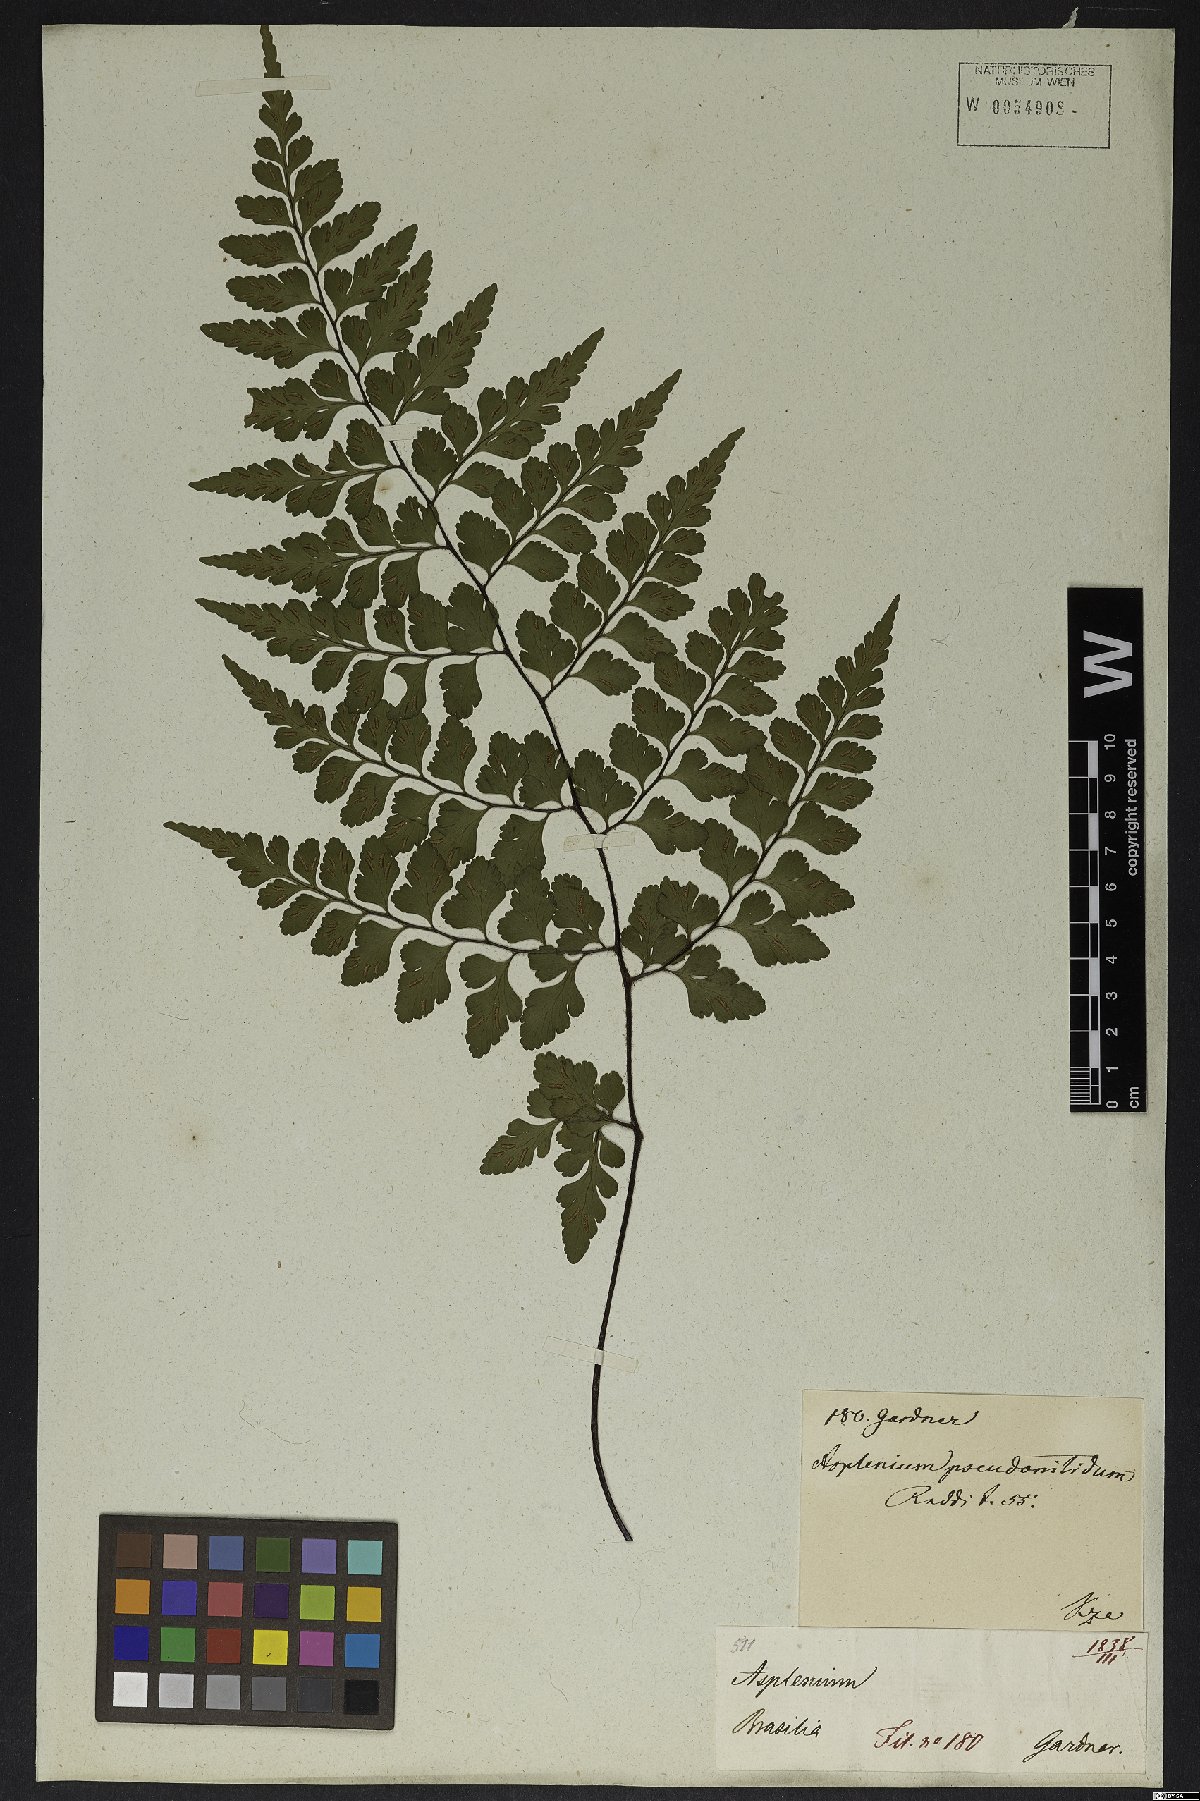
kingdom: Plantae
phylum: Tracheophyta
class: Polypodiopsida
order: Polypodiales
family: Aspleniaceae
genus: Asplenium
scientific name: Asplenium pseudonitidum
